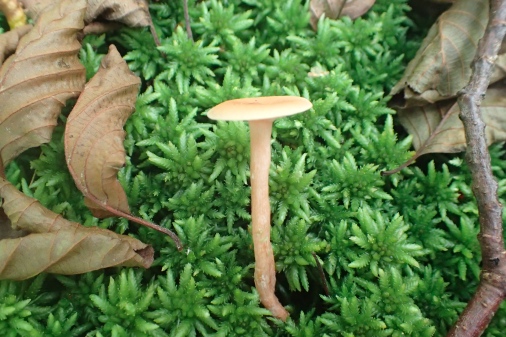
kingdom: Fungi
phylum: Basidiomycota
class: Agaricomycetes
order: Russulales
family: Russulaceae
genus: Lactarius
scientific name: Lactarius tabidus
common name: rynket mælkehat
